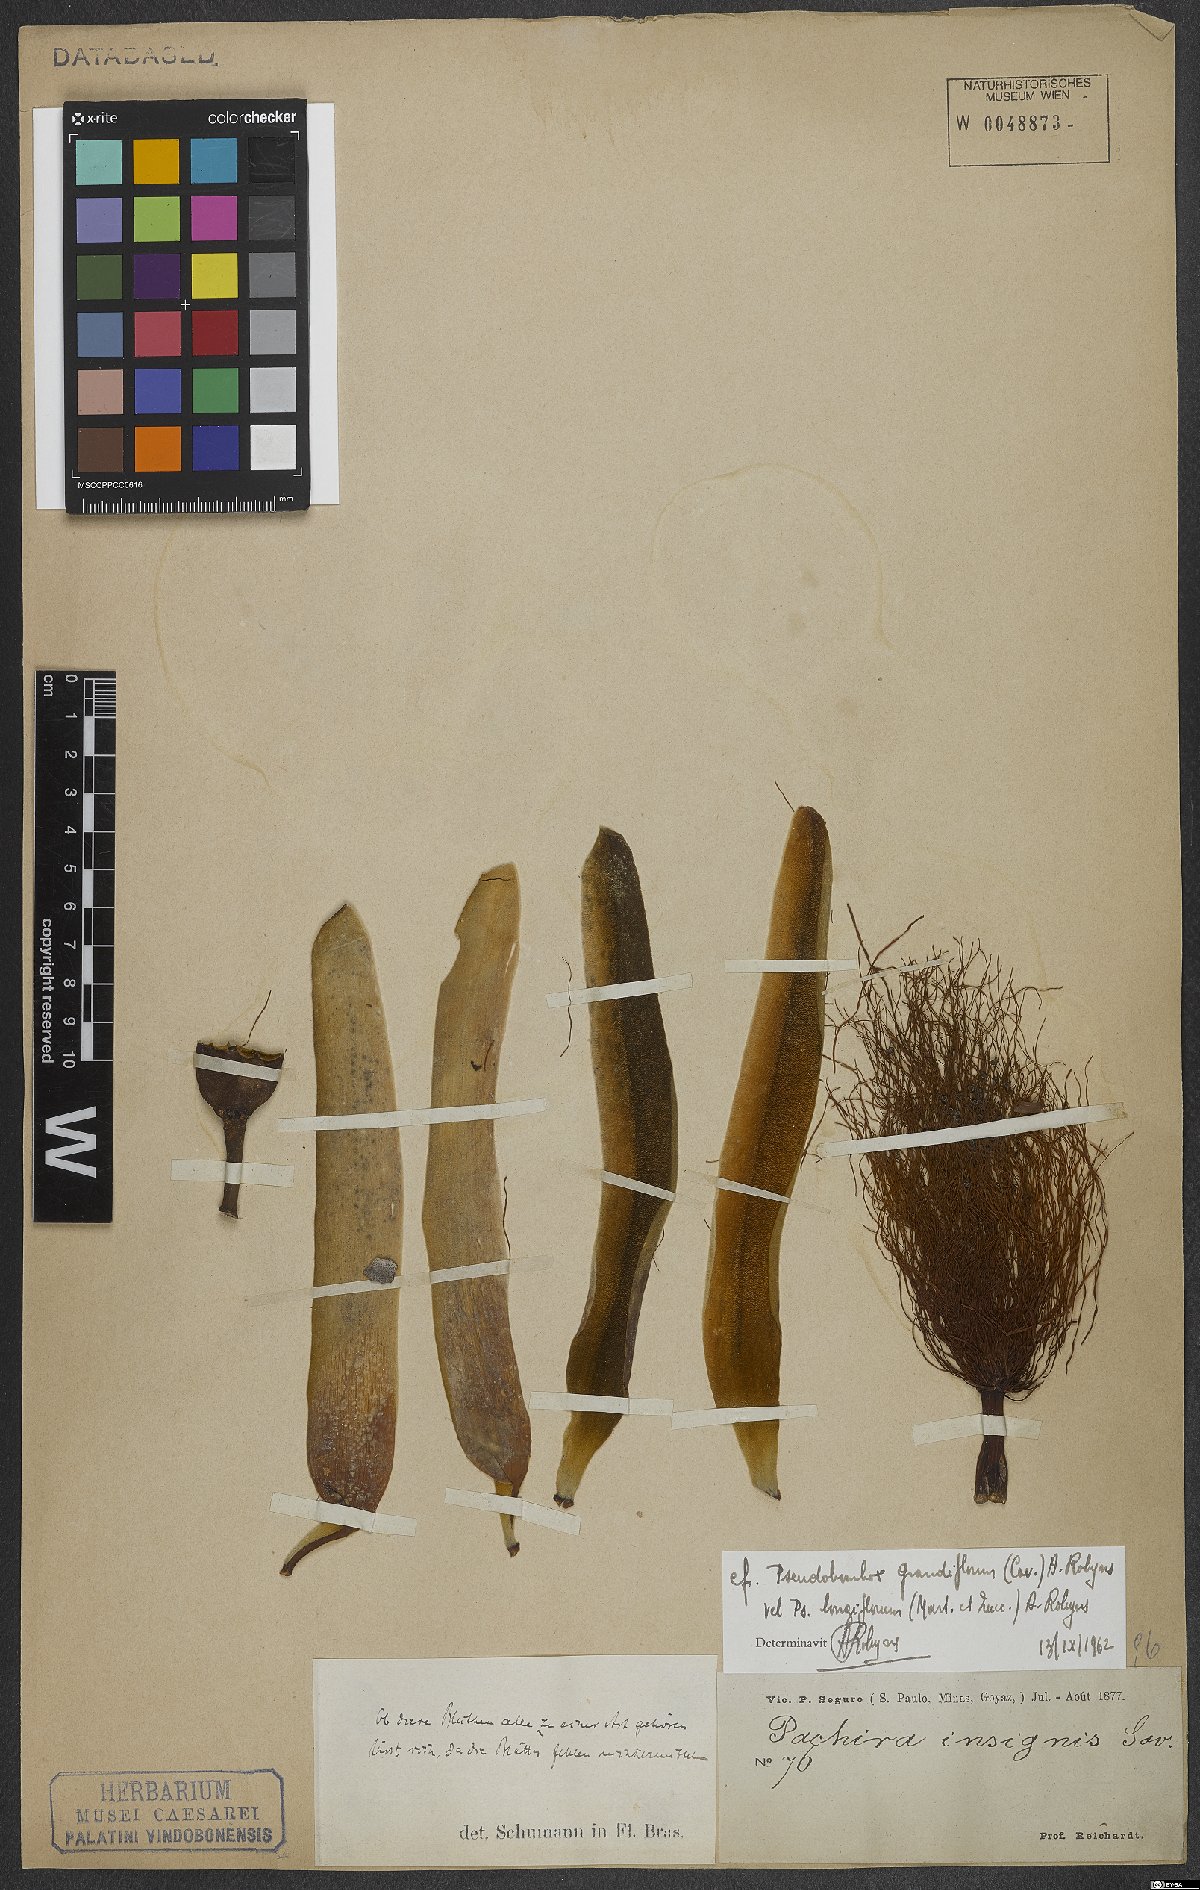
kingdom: Plantae
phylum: Tracheophyta
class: Magnoliopsida
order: Malvales
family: Malvaceae
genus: Pseudobombax
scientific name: Pseudobombax grandiflorum
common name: Brazilian shaving-brush-tree
